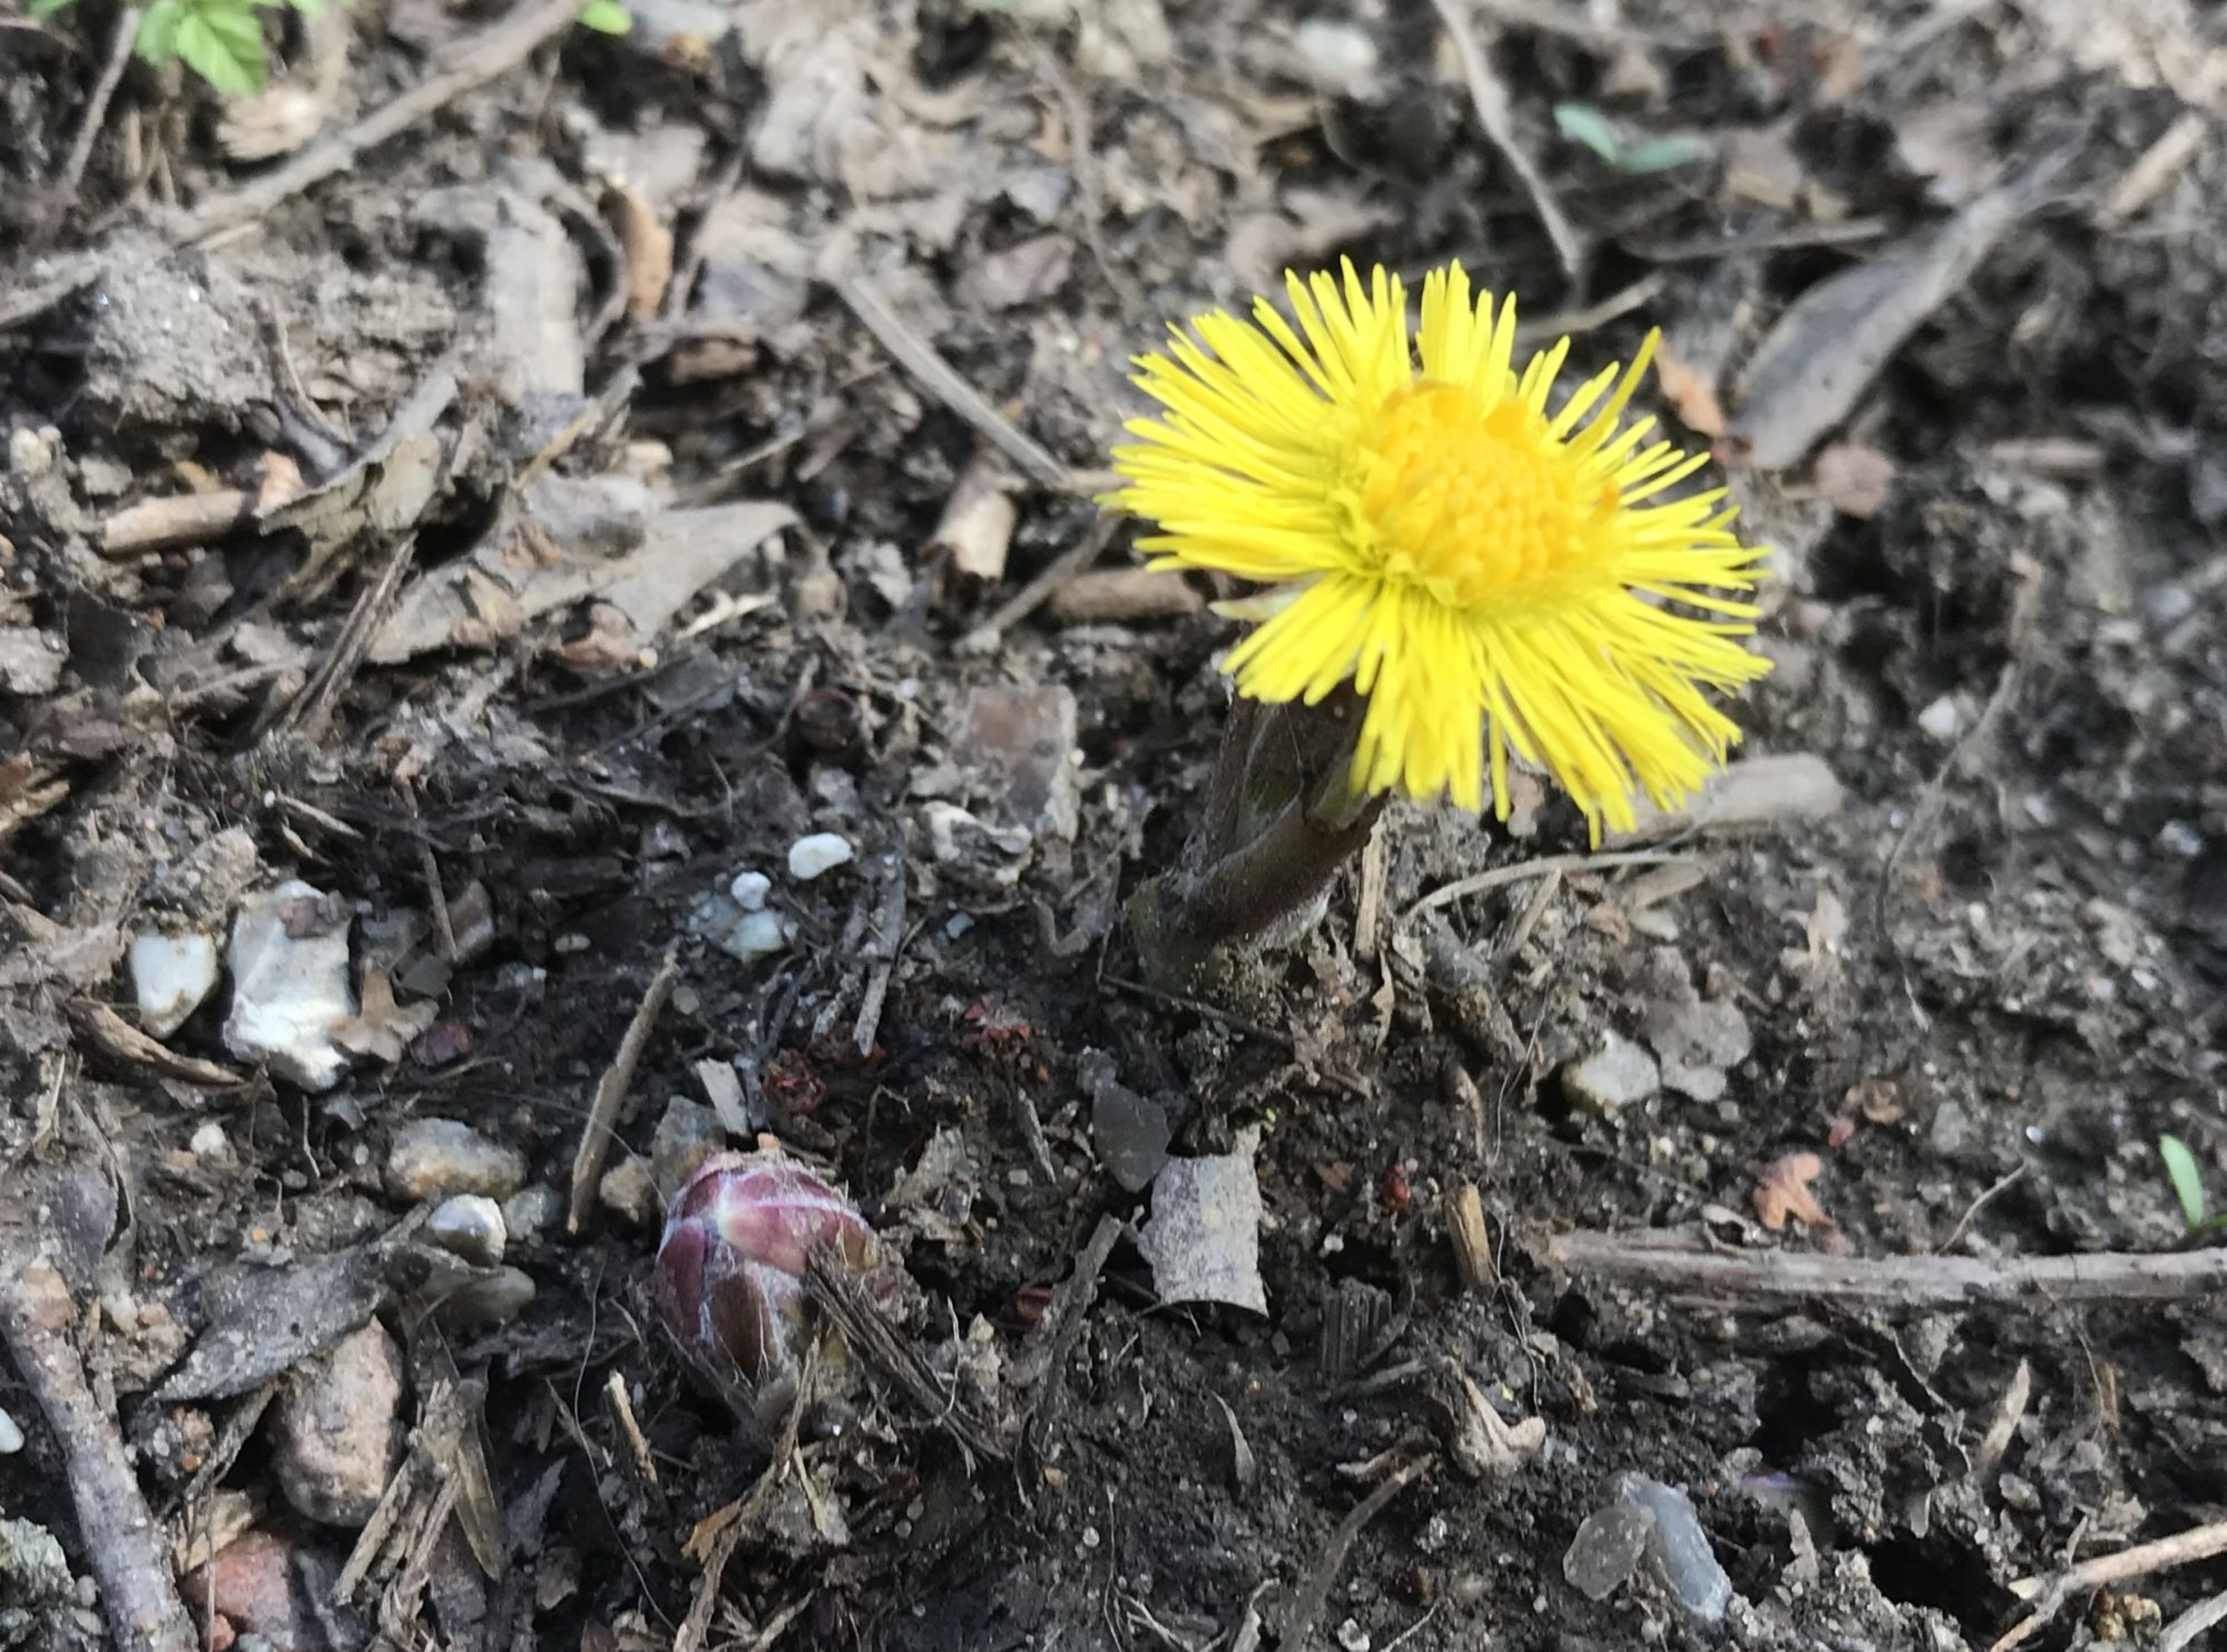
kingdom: Plantae
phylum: Tracheophyta
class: Magnoliopsida
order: Asterales
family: Asteraceae
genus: Tussilago
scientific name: Tussilago farfara
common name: Følfod
